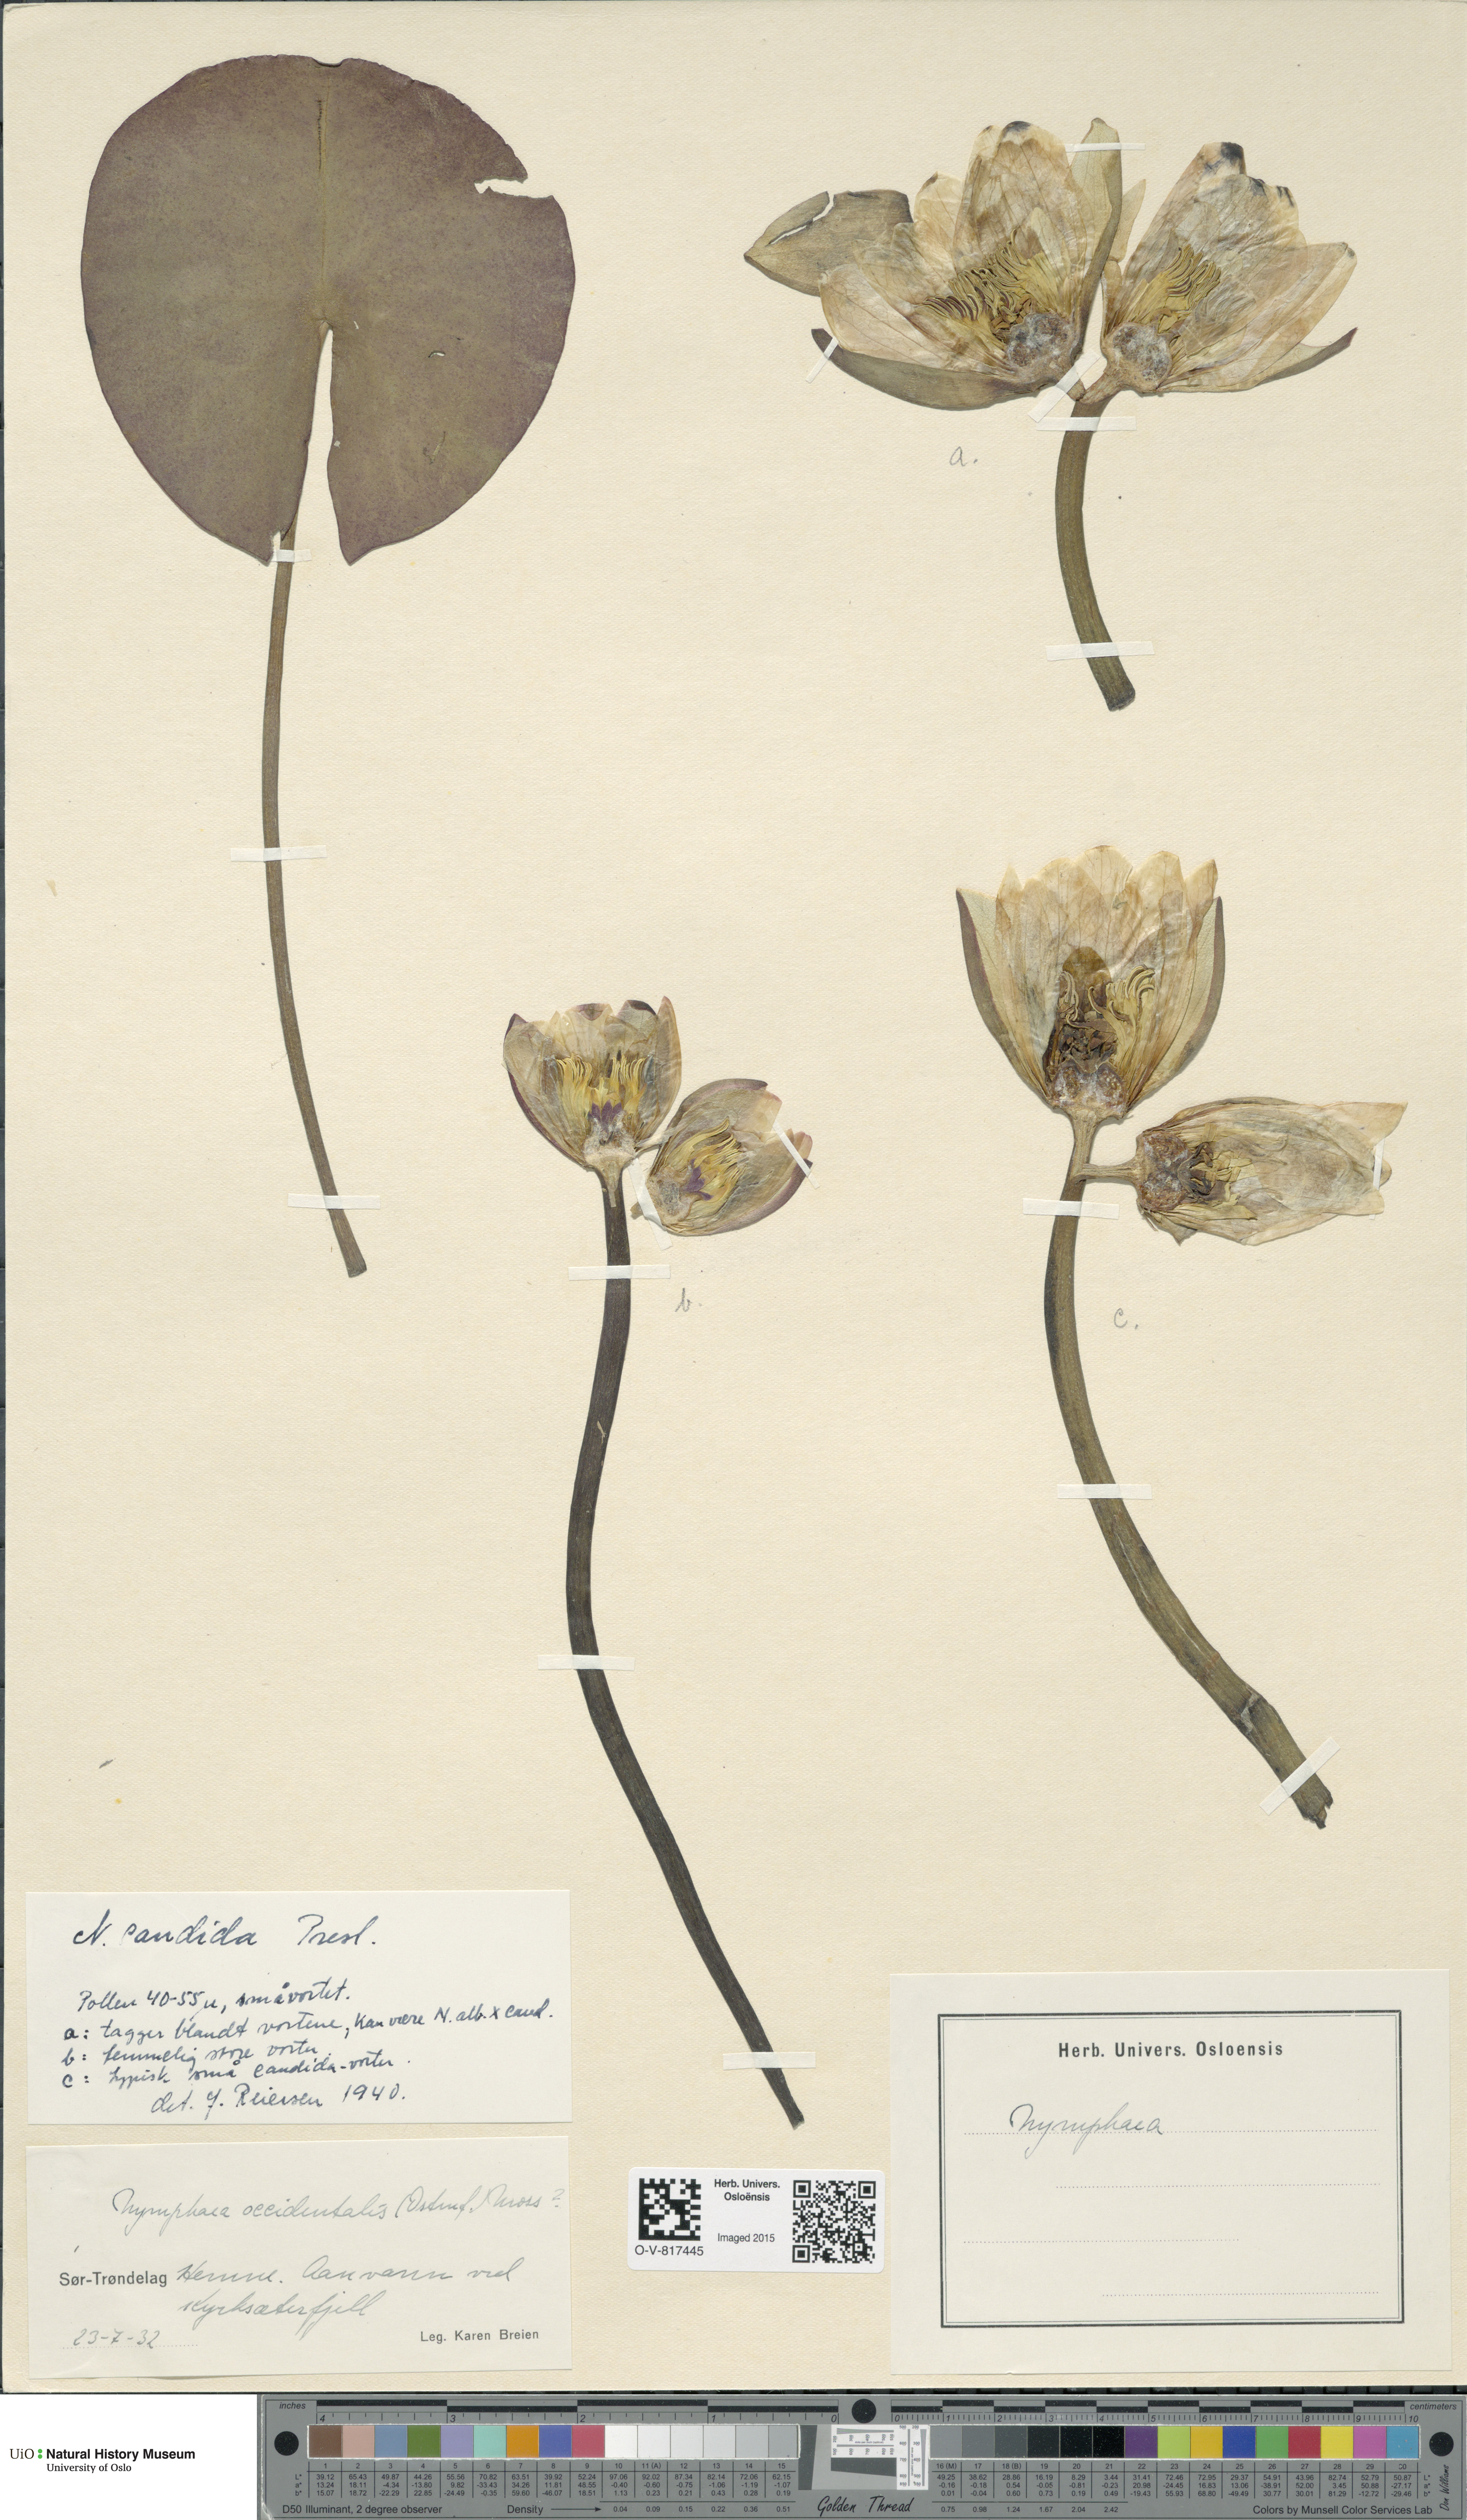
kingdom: Plantae
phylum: Tracheophyta
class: Magnoliopsida
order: Nymphaeales
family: Nymphaeaceae
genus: Nymphaea
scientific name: Nymphaea candida
